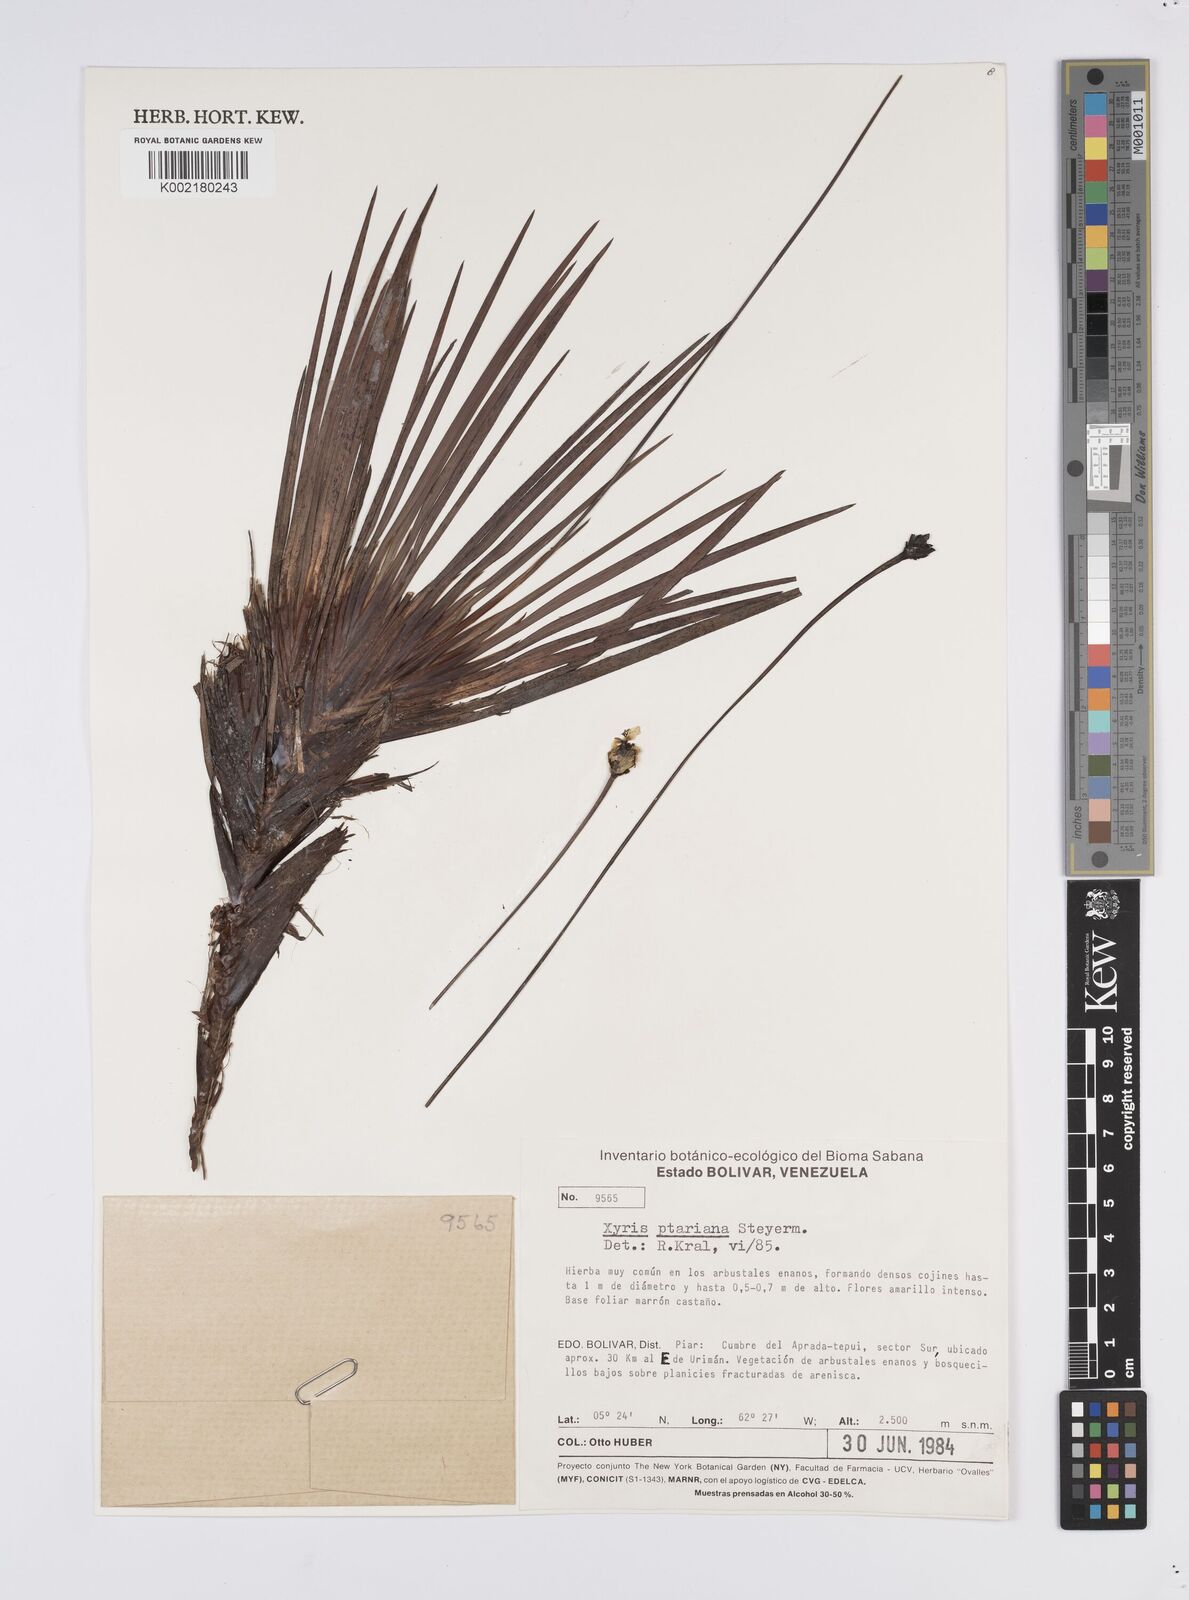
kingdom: Plantae
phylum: Tracheophyta
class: Liliopsida
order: Poales
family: Xyridaceae
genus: Xyris
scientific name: Xyris ptariana
